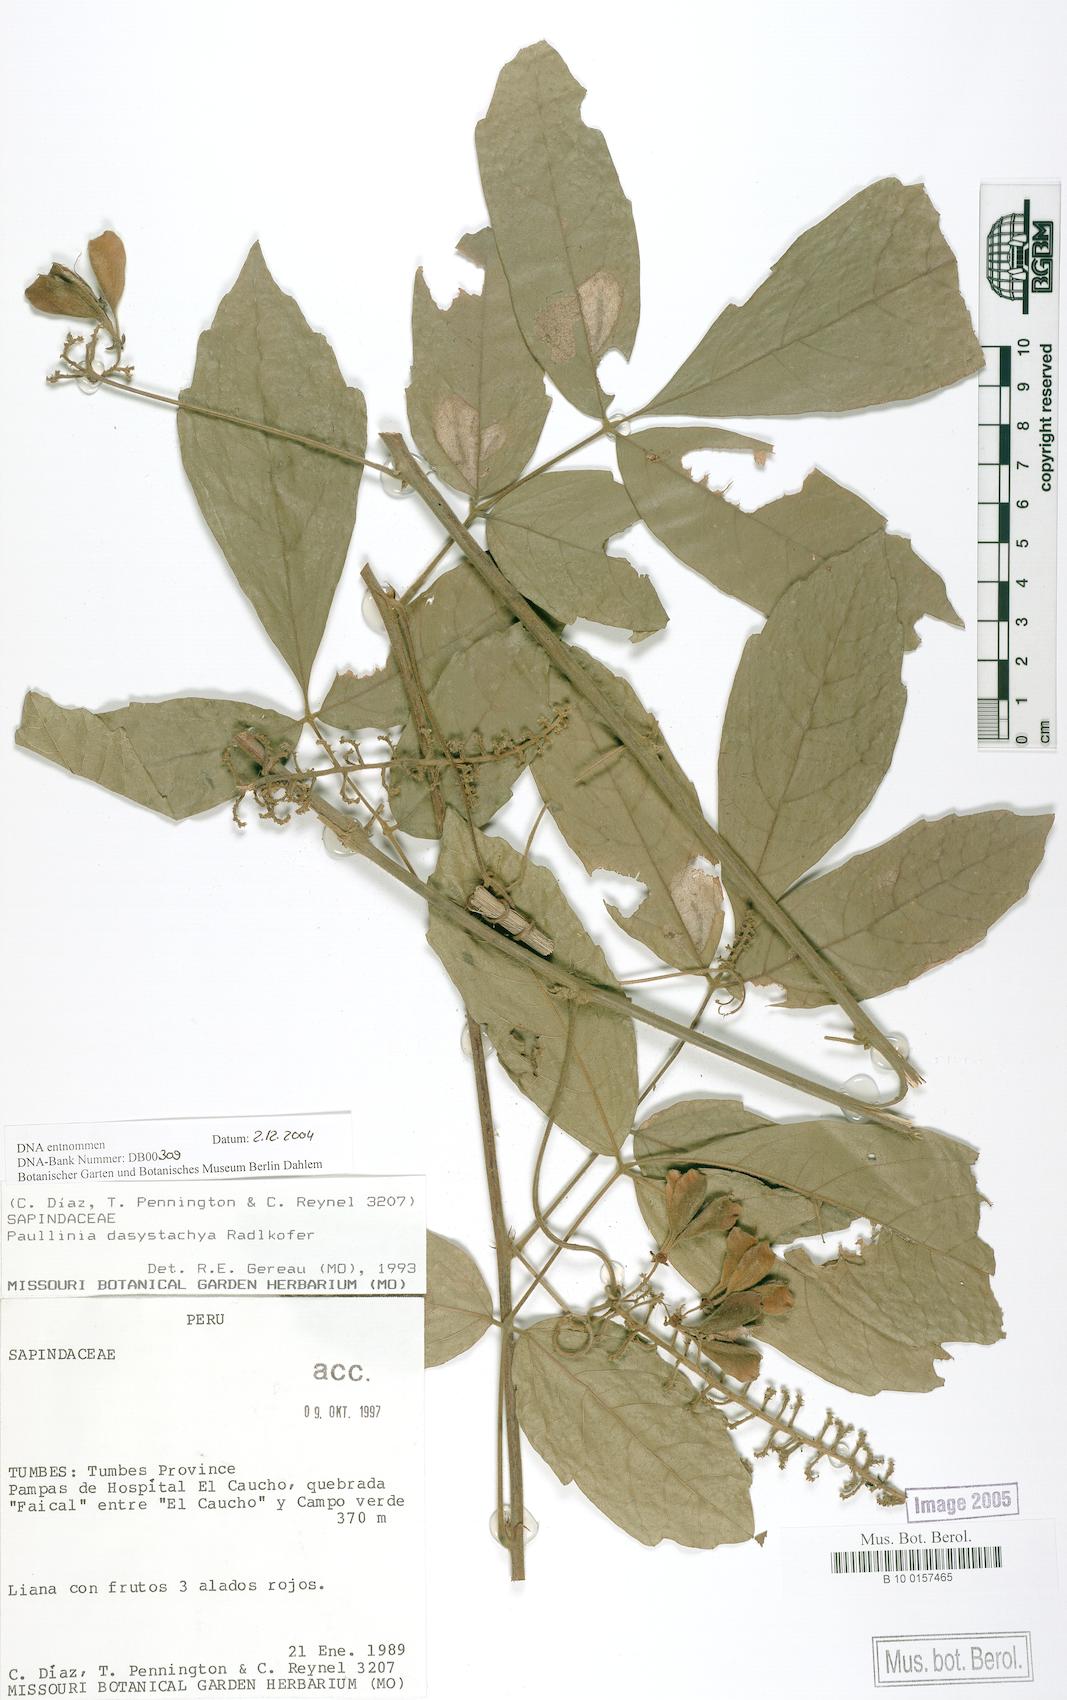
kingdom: Plantae
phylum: Tracheophyta
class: Magnoliopsida
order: Sapindales
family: Sapindaceae
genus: Paullinia
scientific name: Paullinia dasystachya
